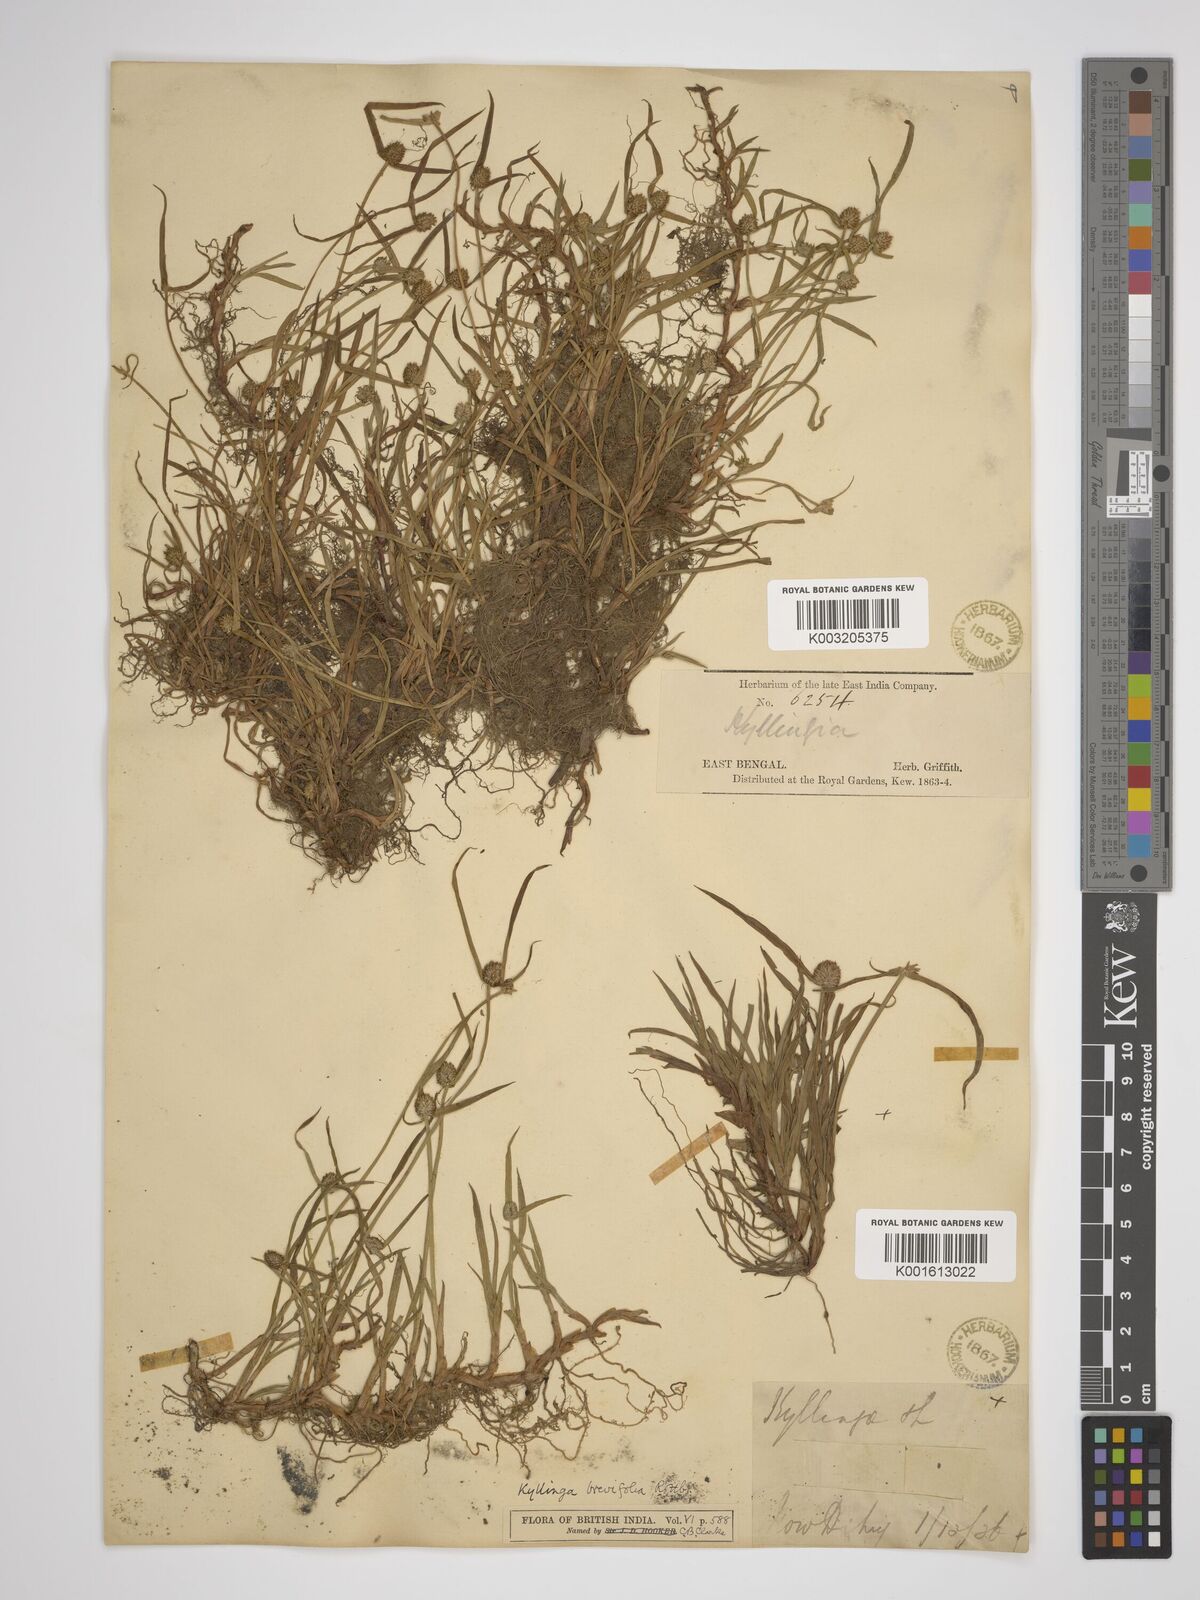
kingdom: Plantae
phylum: Tracheophyta
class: Liliopsida
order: Poales
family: Cyperaceae
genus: Cyperus
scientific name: Cyperus brevifolius
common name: Globe kyllinga
